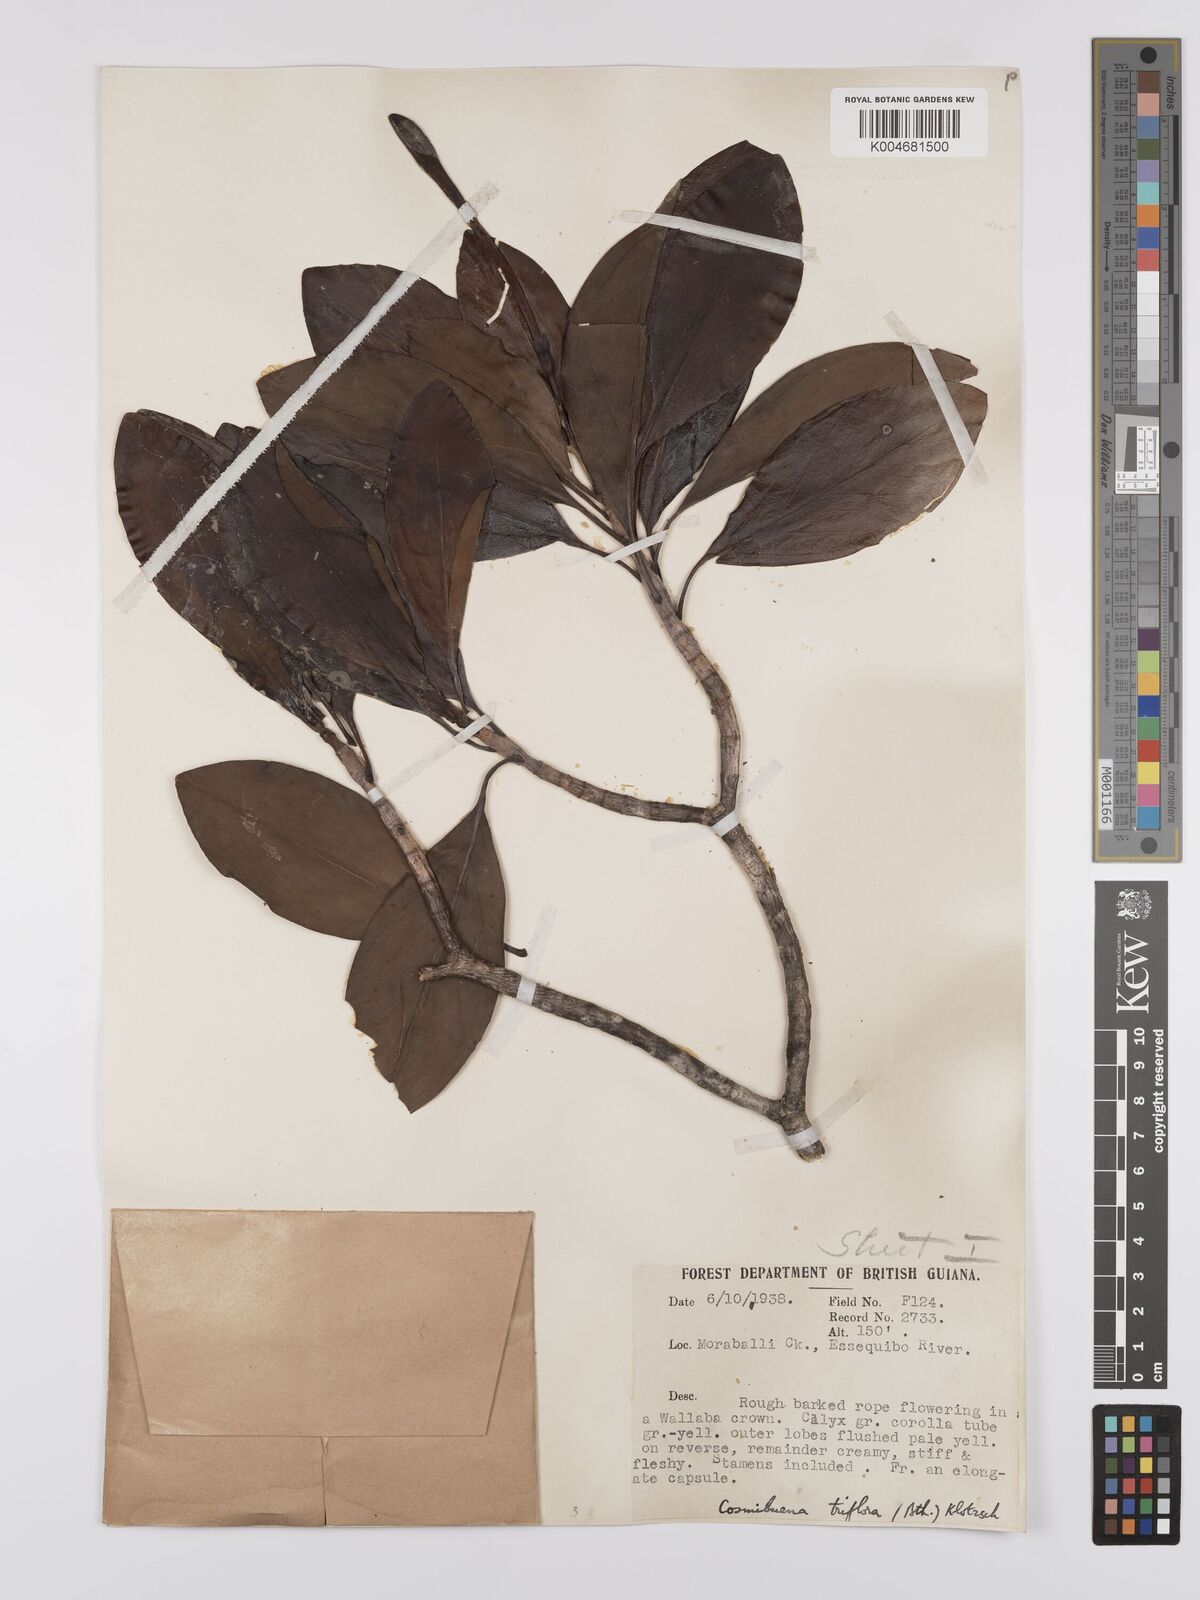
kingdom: Plantae
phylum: Tracheophyta
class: Magnoliopsida
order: Gentianales
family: Rubiaceae
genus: Cosmibuena
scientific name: Cosmibuena grandiflora
